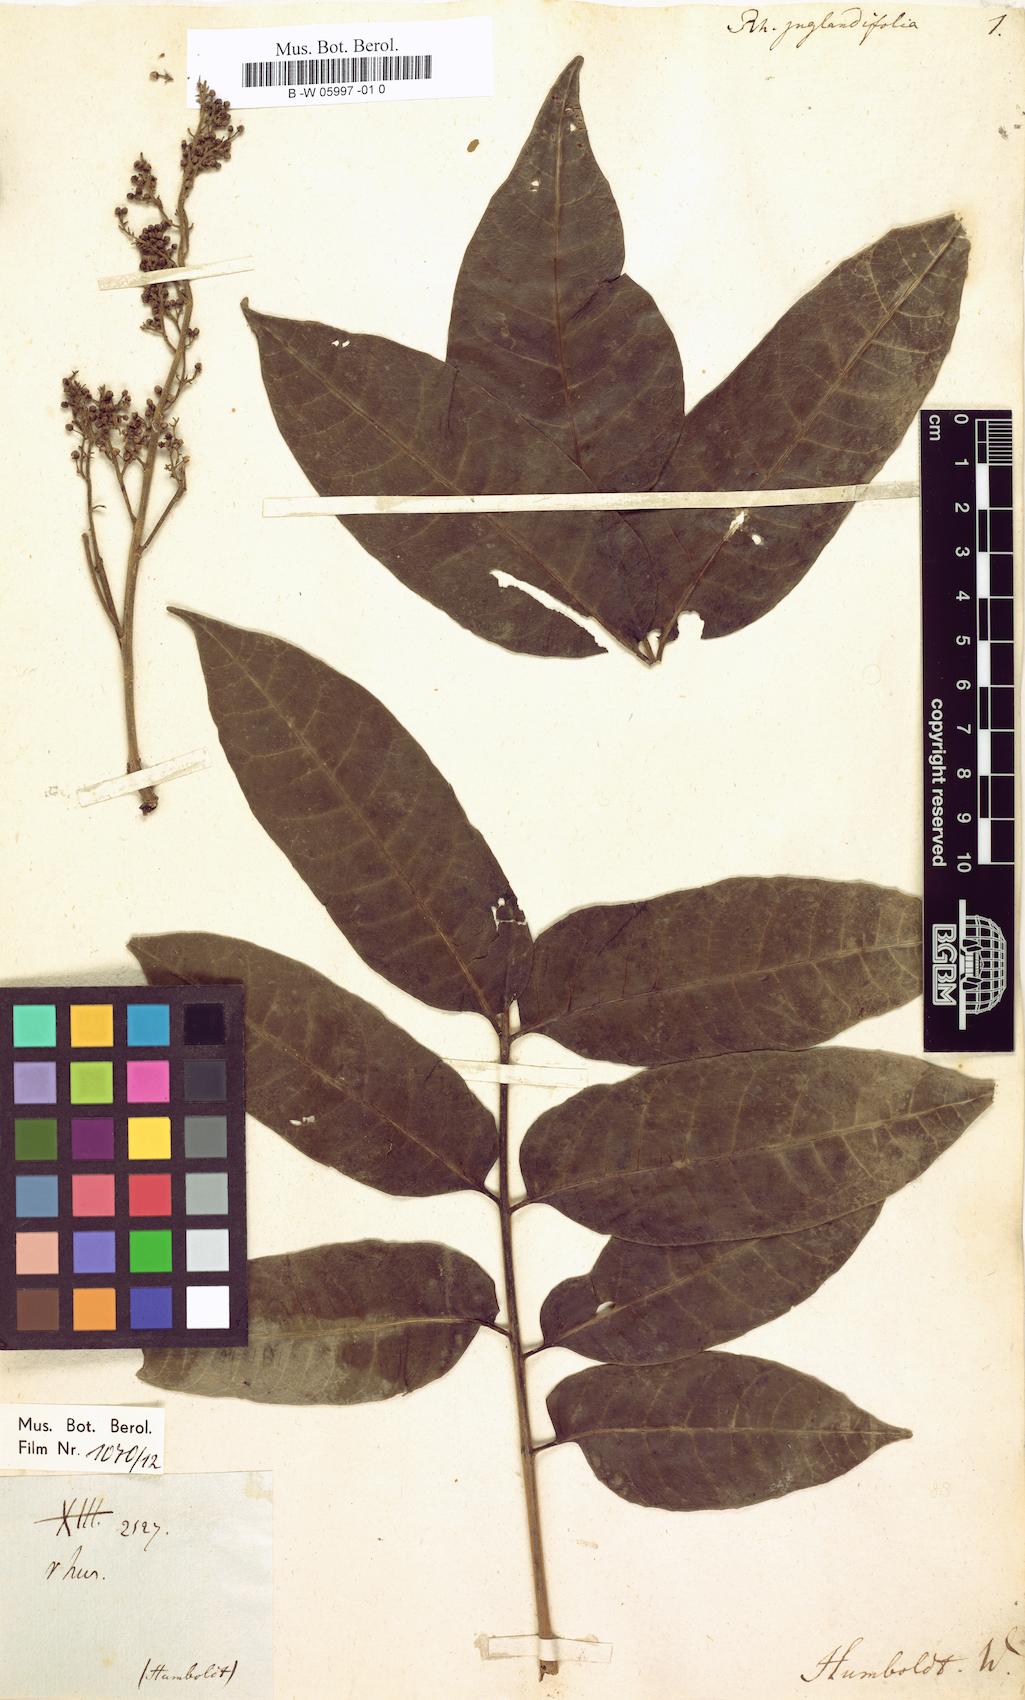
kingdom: Plantae
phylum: Tracheophyta
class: Magnoliopsida
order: Sapindales
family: Anacardiaceae
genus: Toxicodendron
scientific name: Toxicodendron
